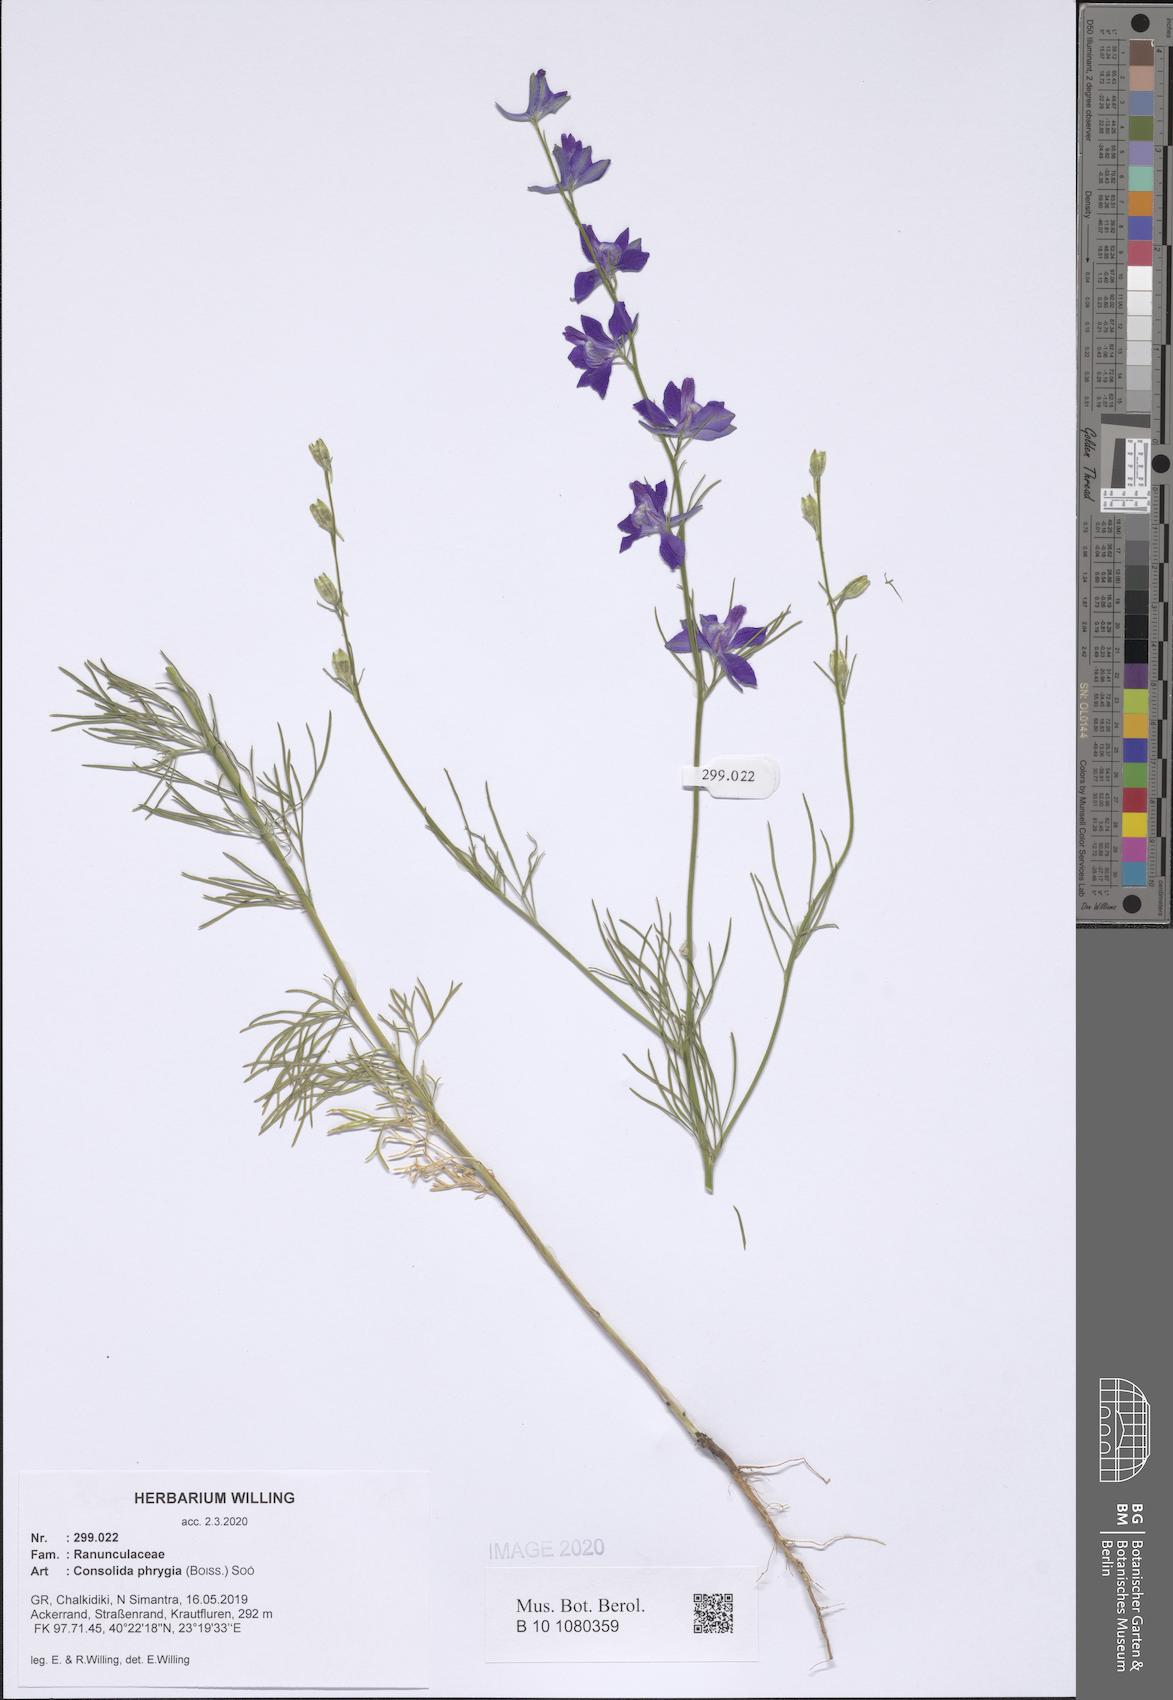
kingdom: Plantae
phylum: Tracheophyta
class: Magnoliopsida
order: Ranunculales
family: Ranunculaceae
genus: Delphinium
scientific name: Delphinium phrygium
